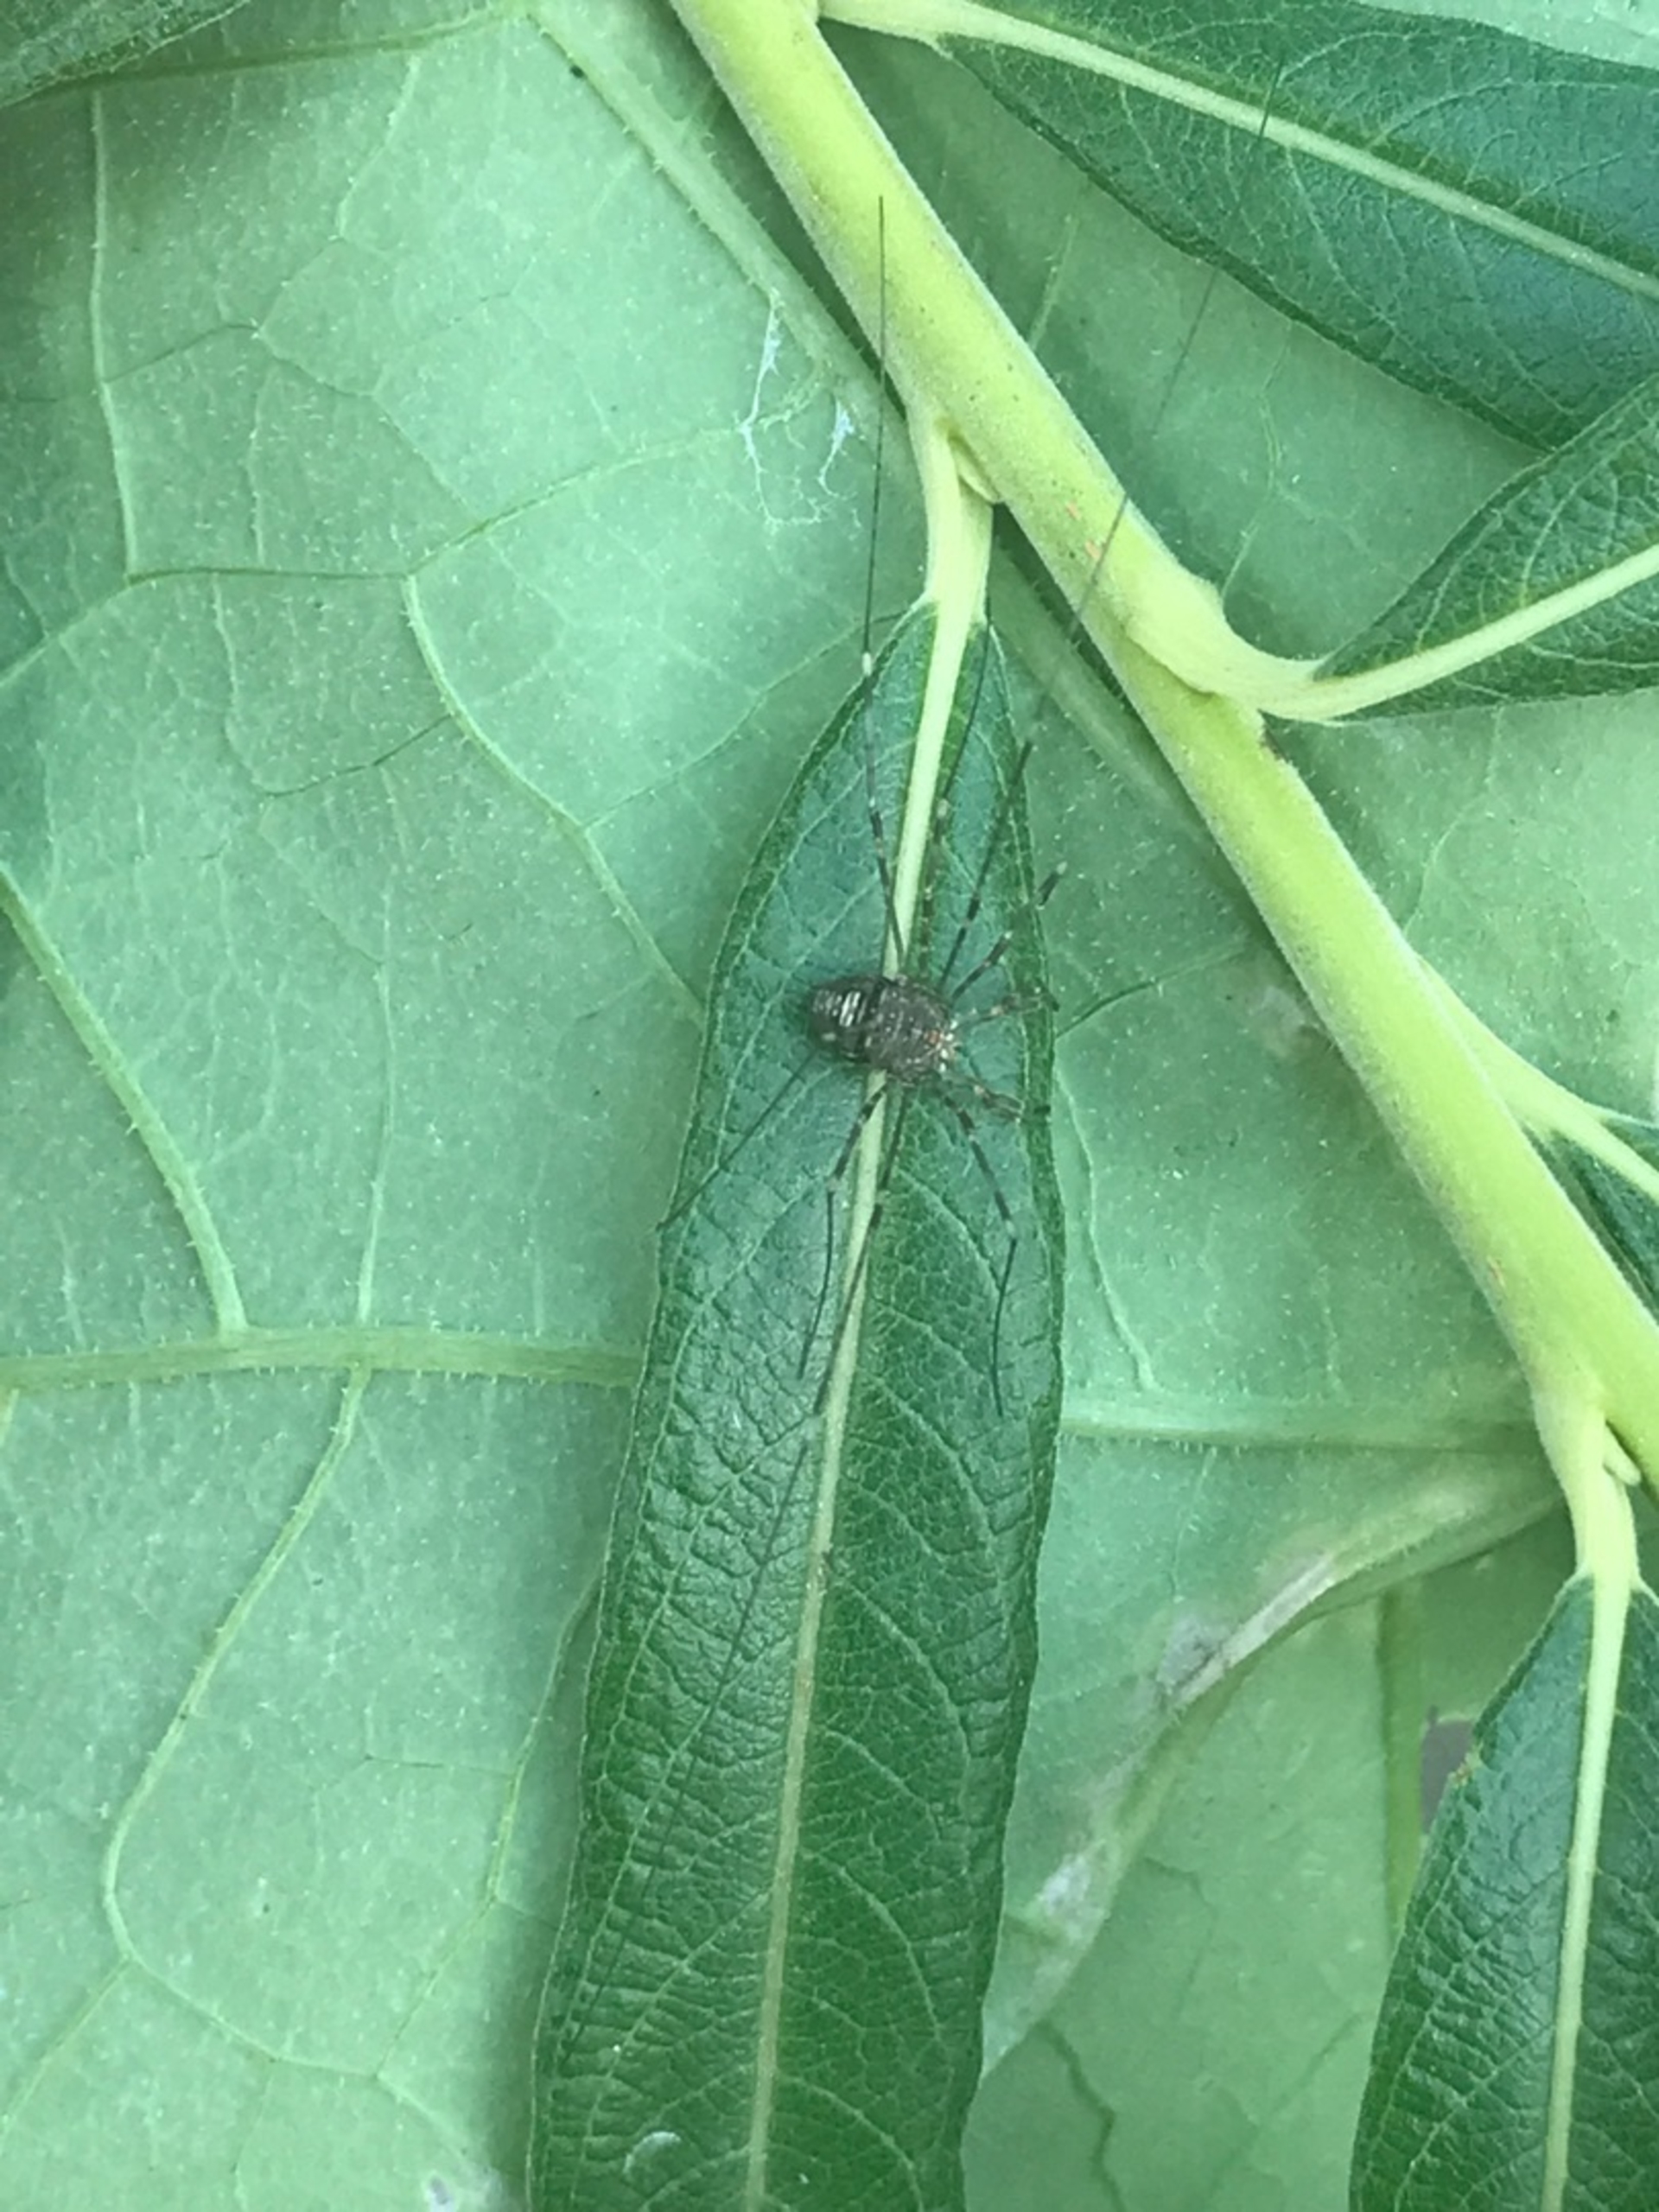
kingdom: Animalia
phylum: Arthropoda
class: Arachnida
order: Opiliones
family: Phalangiidae
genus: Dicranopalpus
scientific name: Dicranopalpus ramosus
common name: Gaffelmejer
